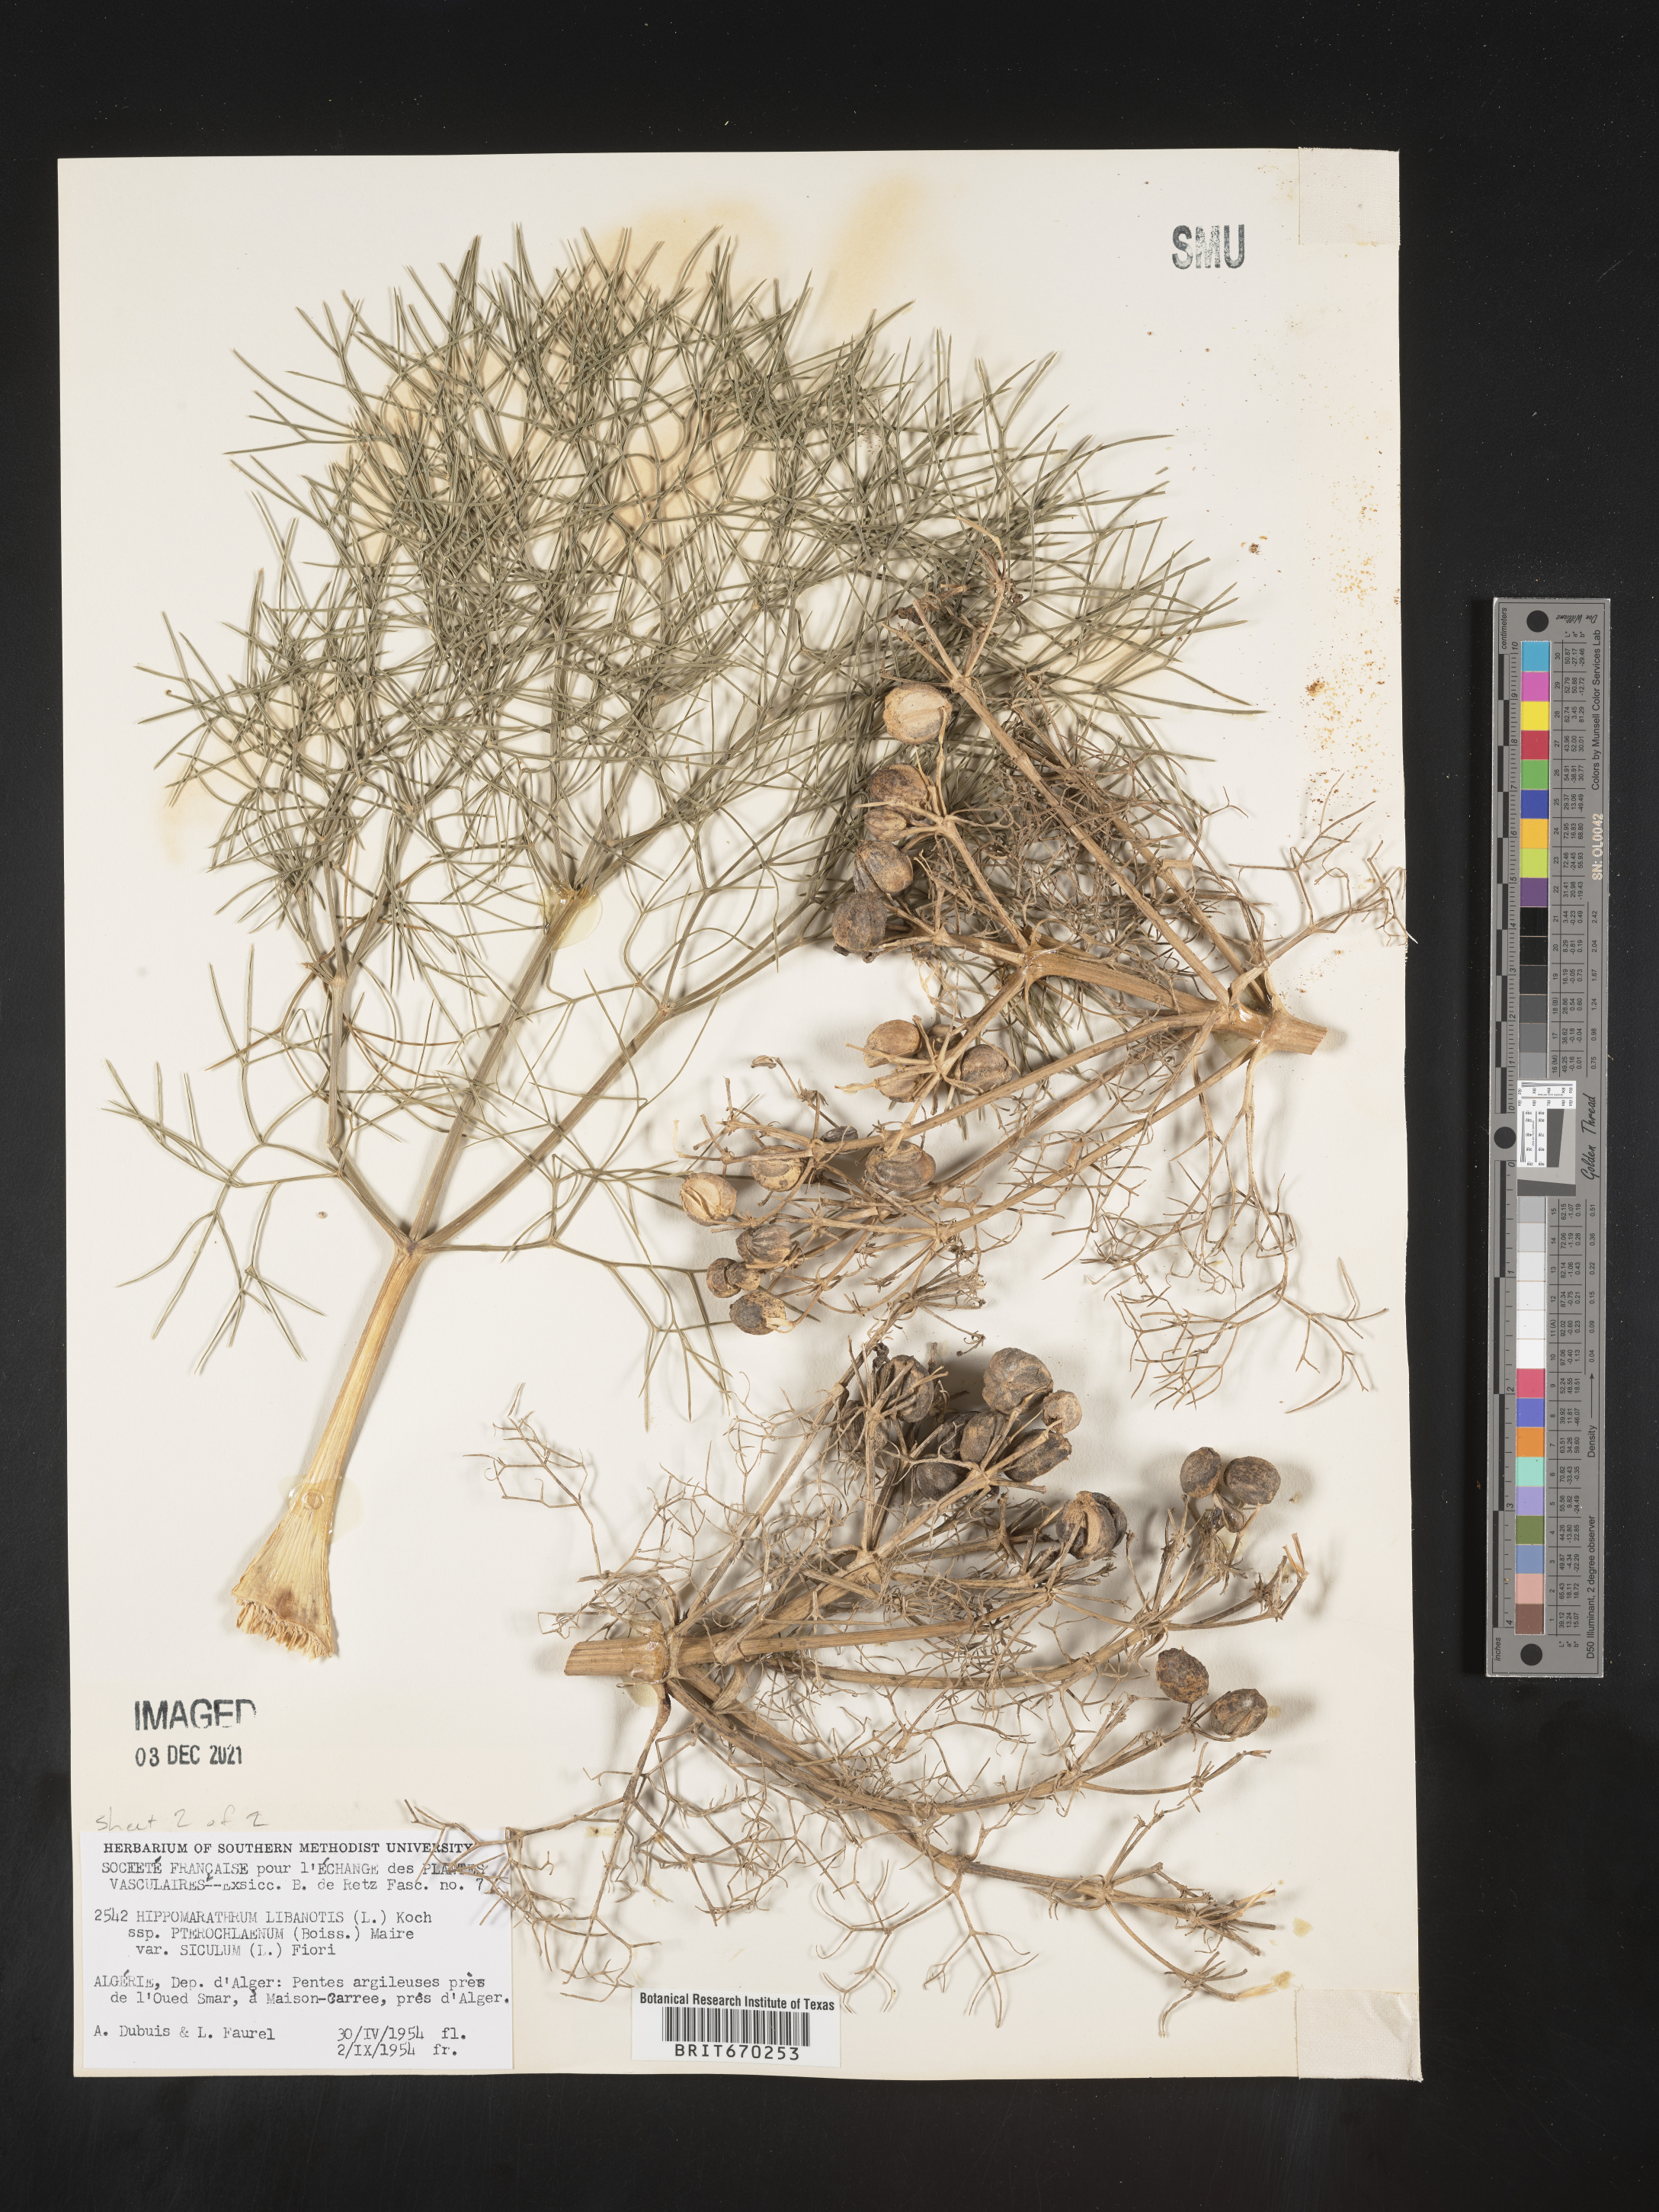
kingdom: Plantae
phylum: Tracheophyta
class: Magnoliopsida
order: Apiales
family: Apiaceae
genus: Hippomarathrum
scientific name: Hippomarathrum
